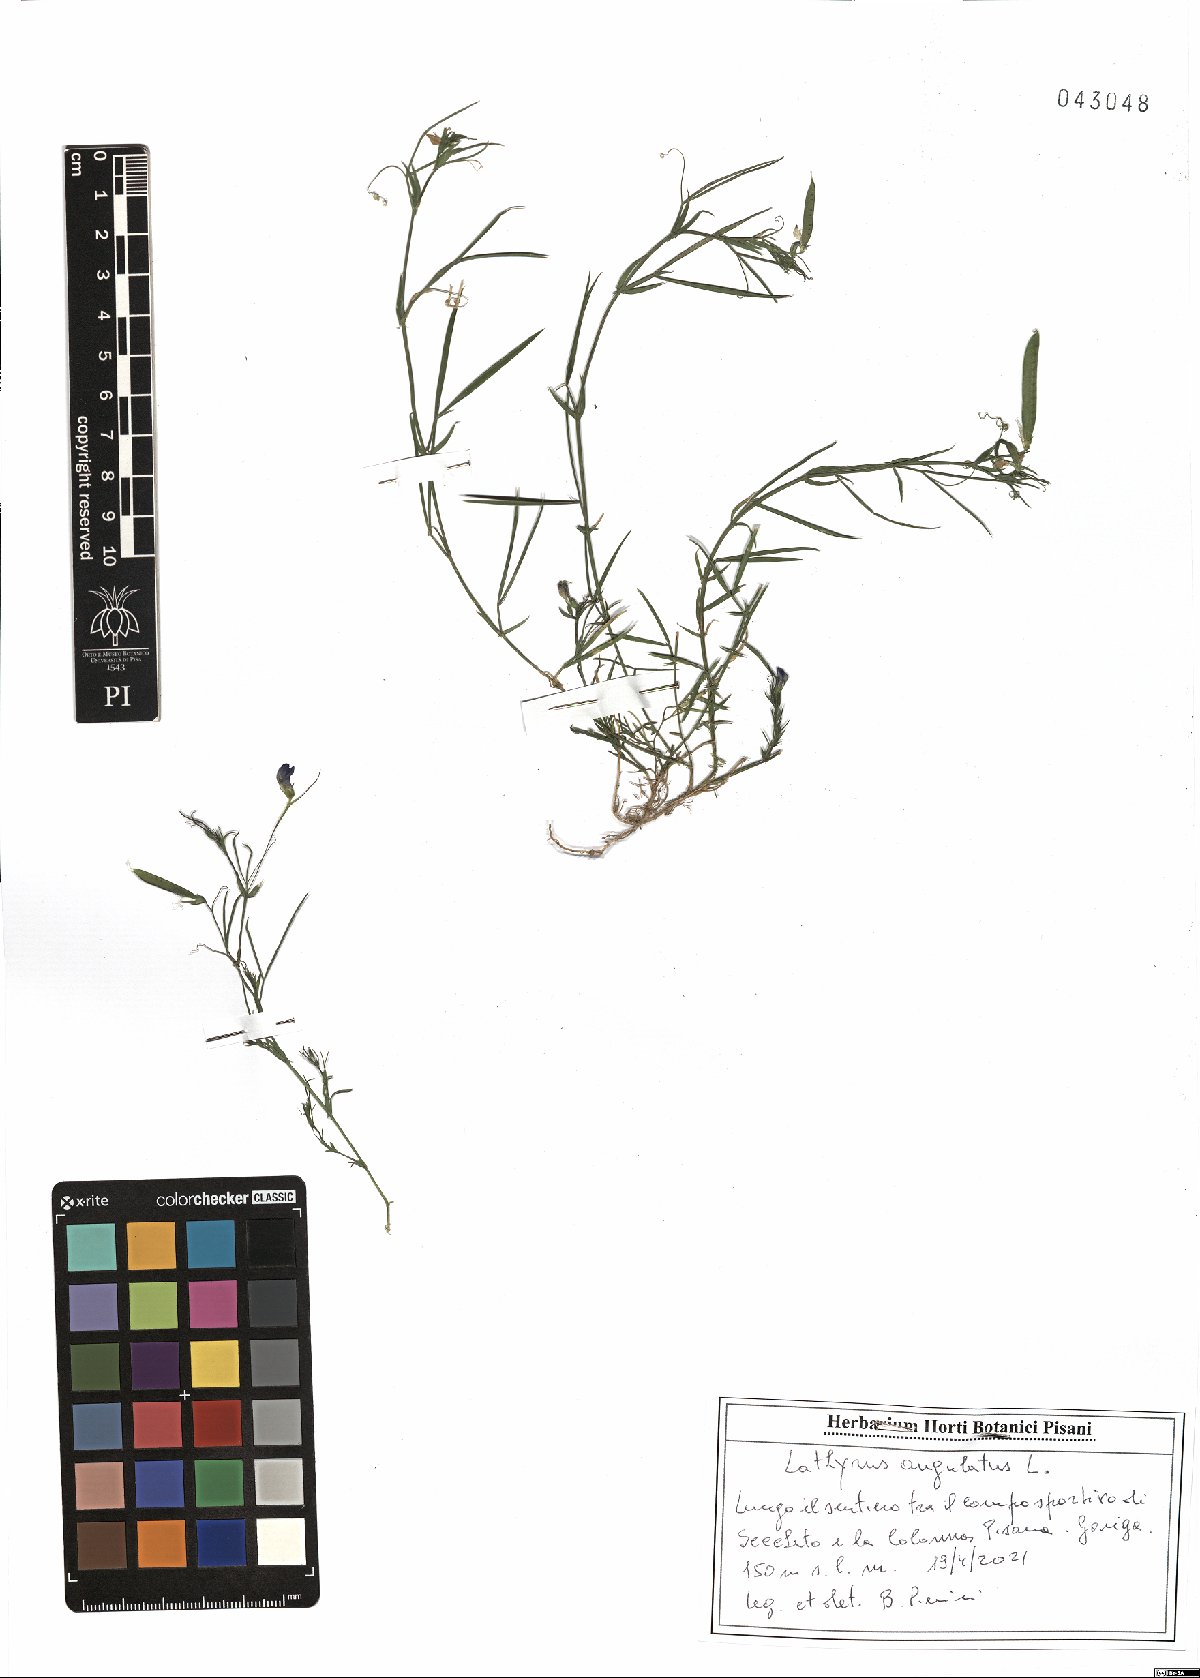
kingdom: Plantae
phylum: Tracheophyta
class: Magnoliopsida
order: Fabales
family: Fabaceae
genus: Lathyrus
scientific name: Lathyrus angulatus
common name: Angular pea
